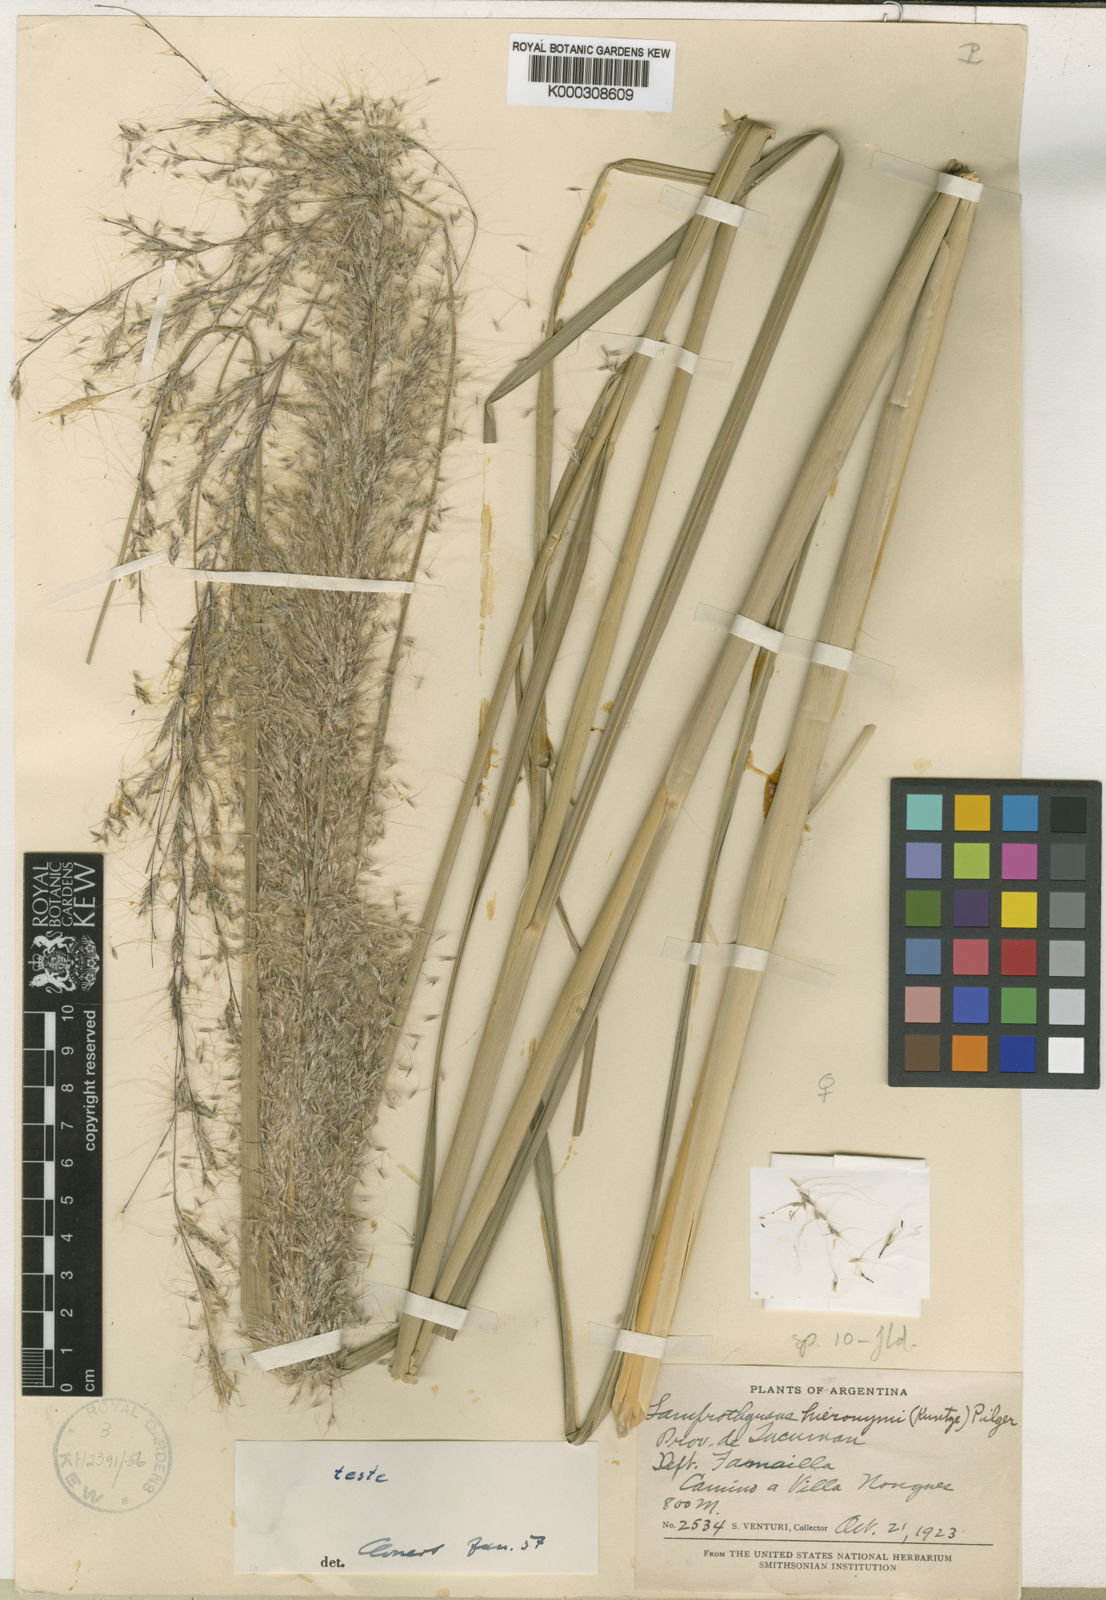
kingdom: Plantae
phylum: Tracheophyta
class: Liliopsida
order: Poales
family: Poaceae
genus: Cortaderia
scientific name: Cortaderia hieronymi
